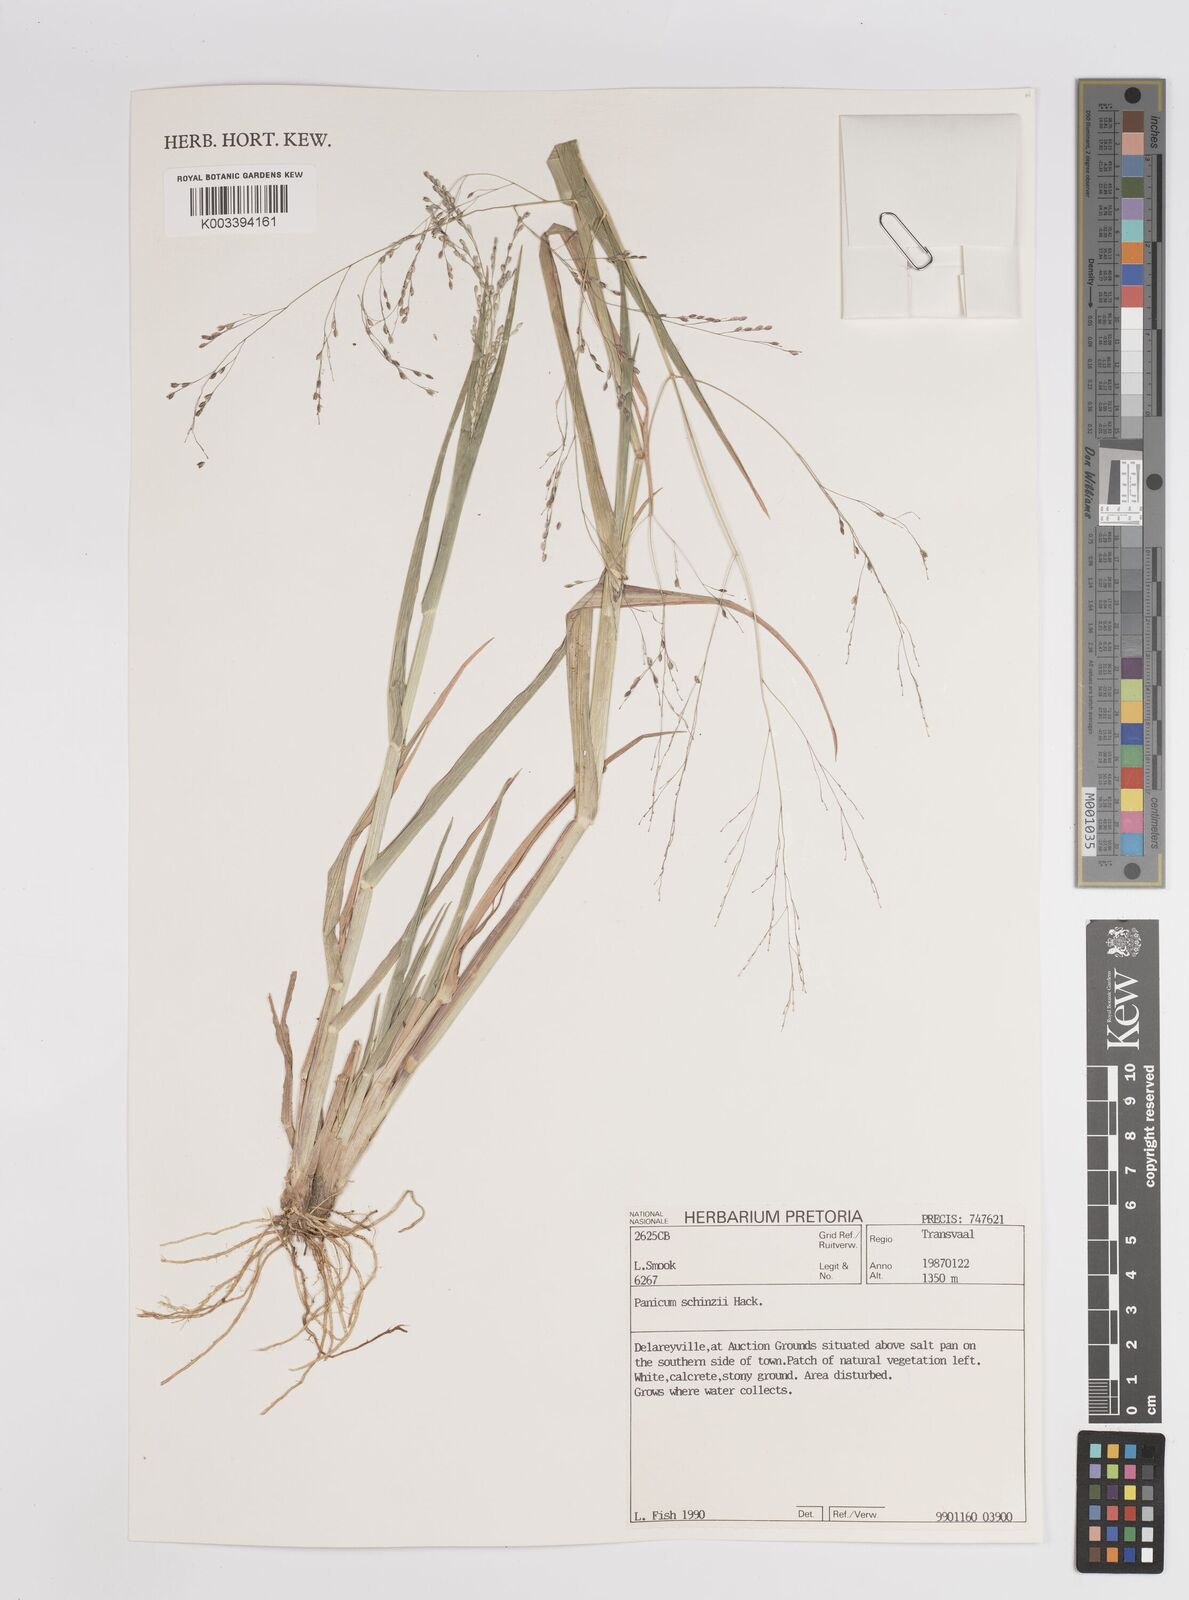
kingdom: Plantae
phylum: Tracheophyta
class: Liliopsida
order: Poales
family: Poaceae
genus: Panicum
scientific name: Panicum schinzii
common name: Sweet grass
